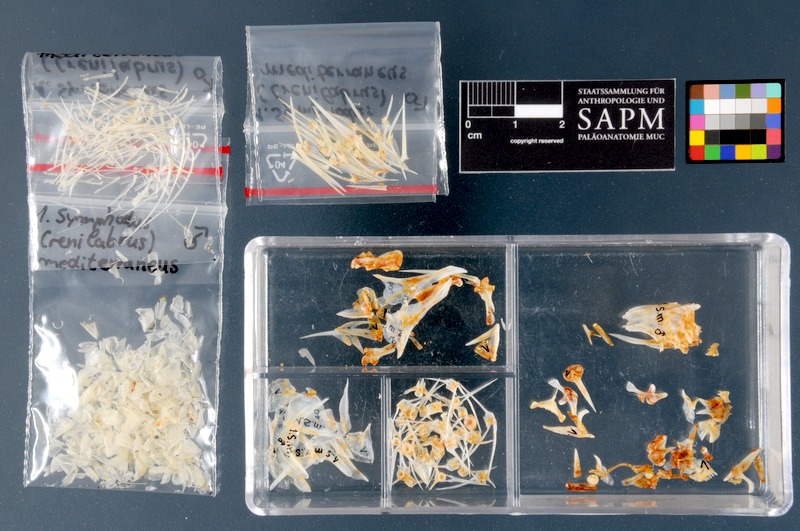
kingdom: Animalia
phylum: Chordata
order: Perciformes
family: Labridae
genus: Symphodus
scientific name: Symphodus mediterraneus
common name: Axillary wrasse
